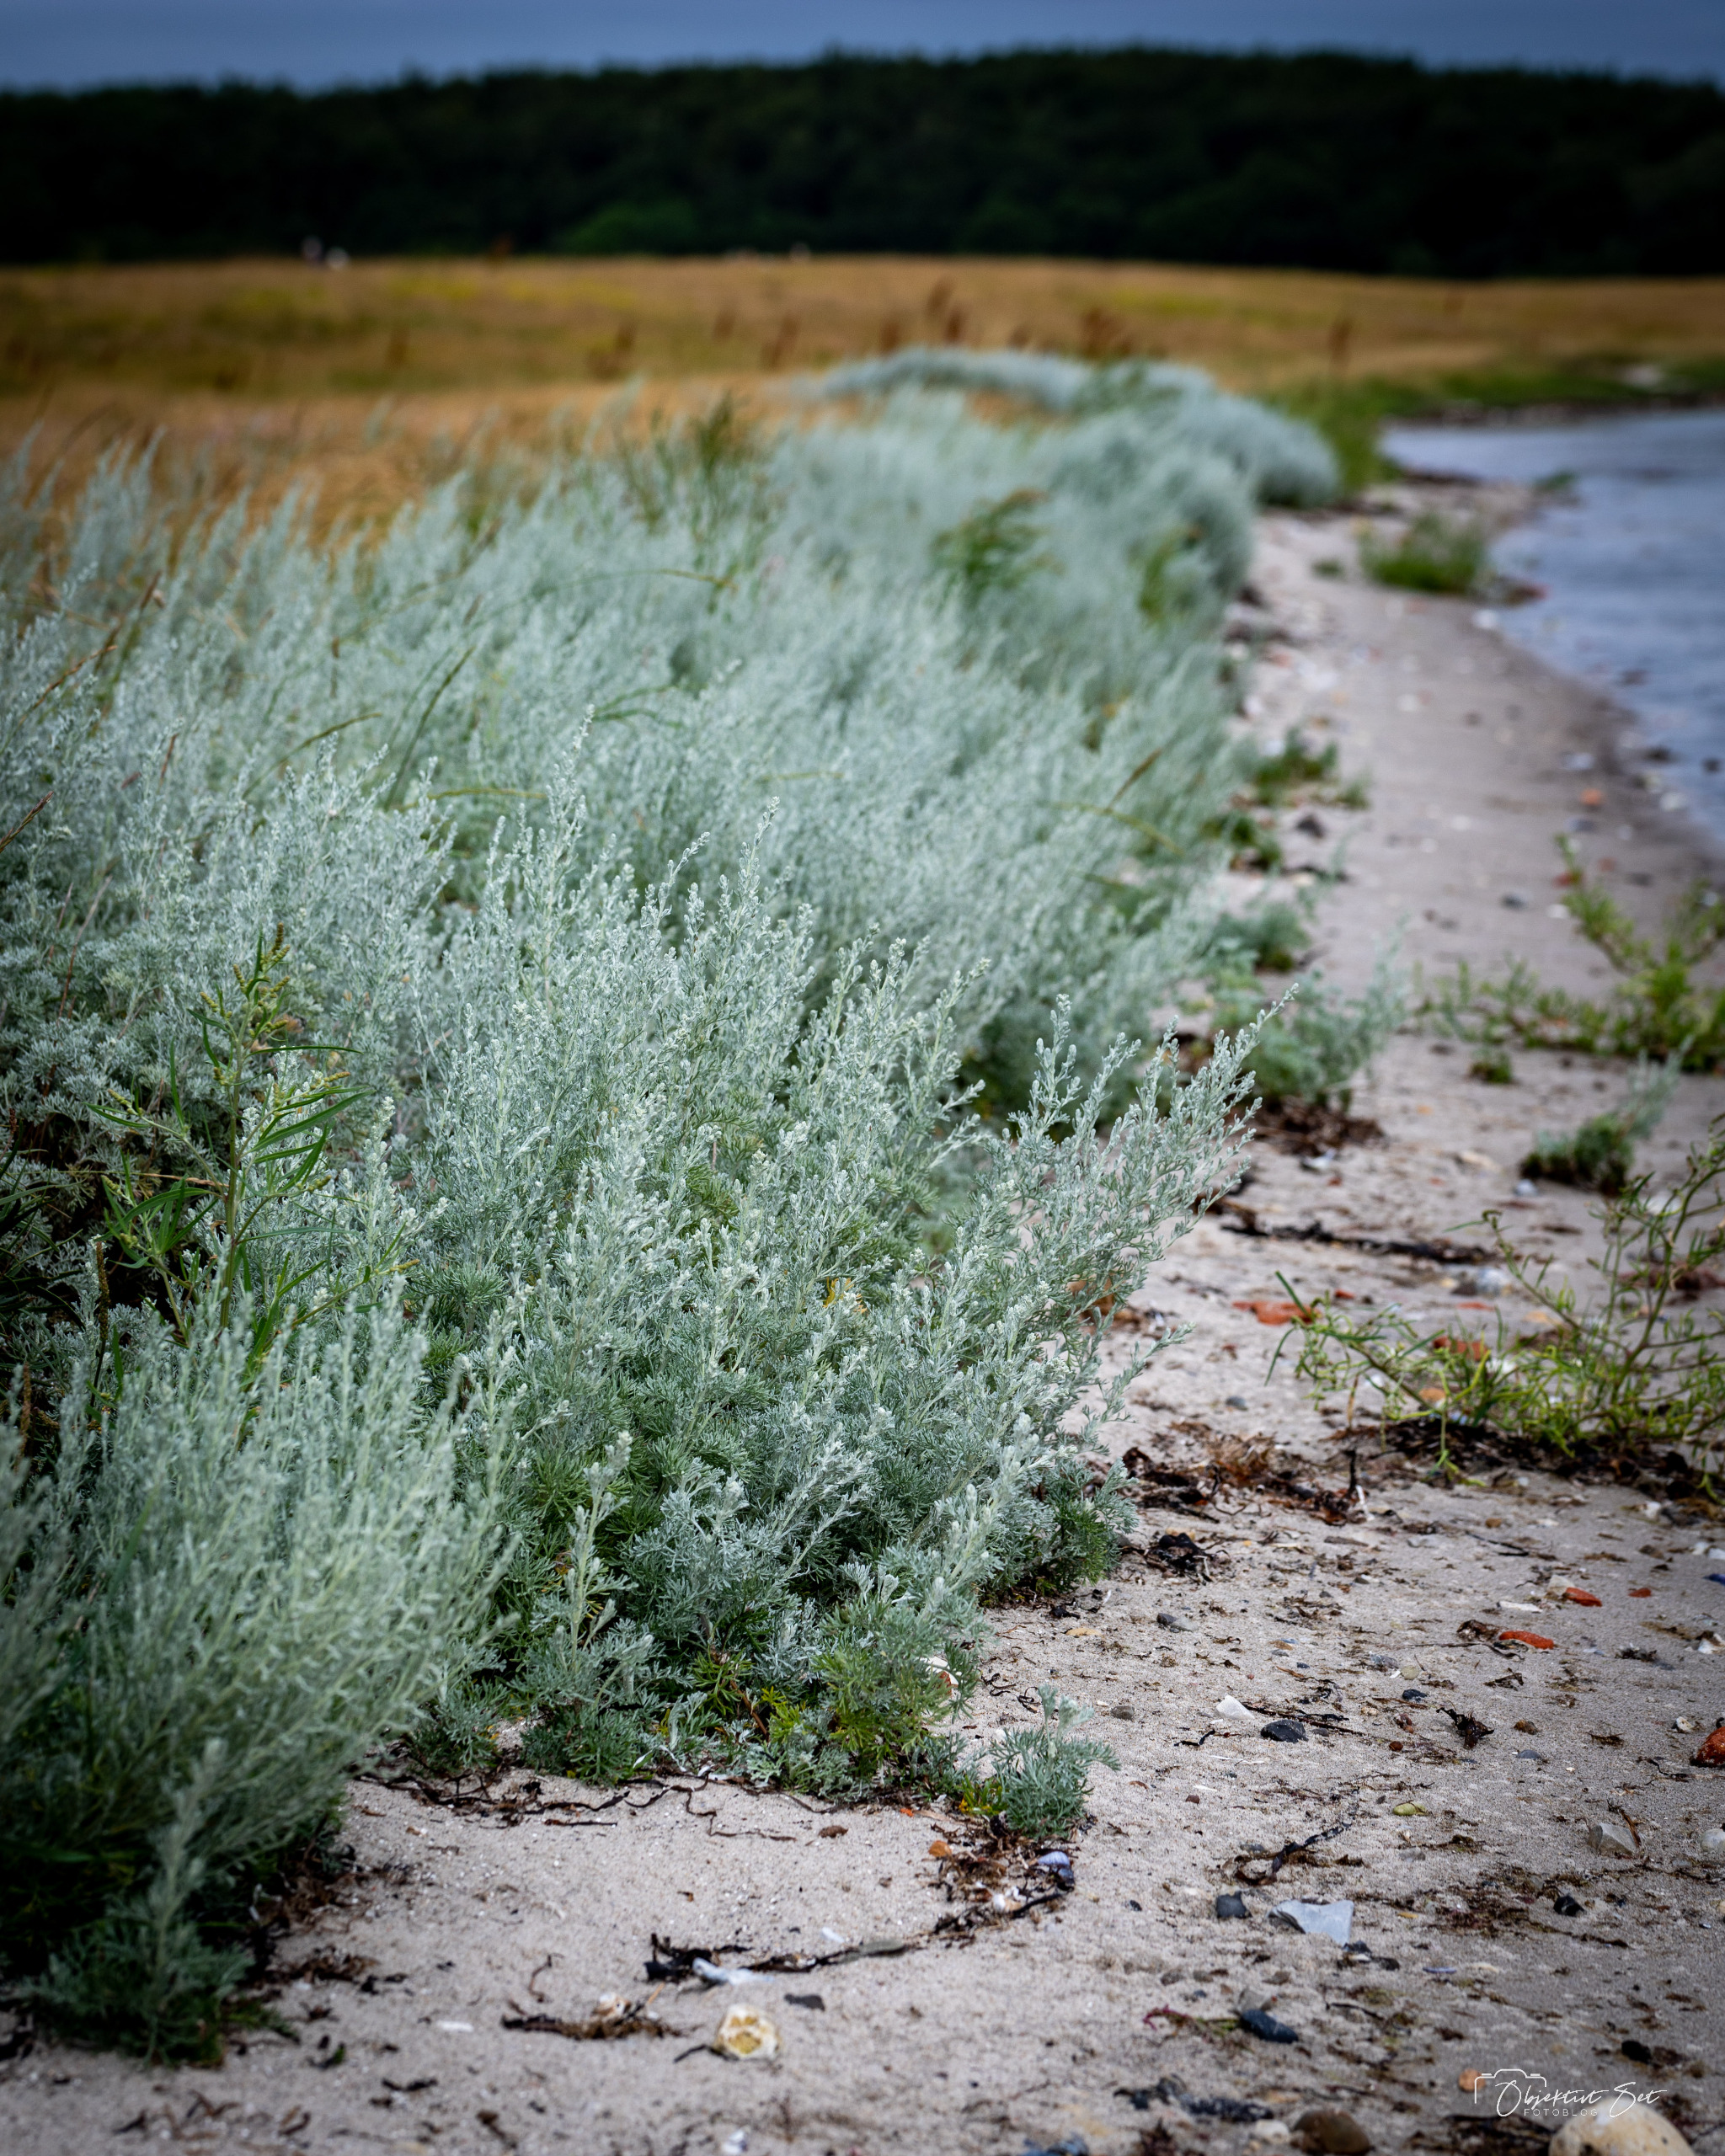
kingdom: Plantae
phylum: Tracheophyta
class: Magnoliopsida
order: Asterales
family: Asteraceae
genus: Artemisia
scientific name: Artemisia maritima
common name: Strandmalurt
